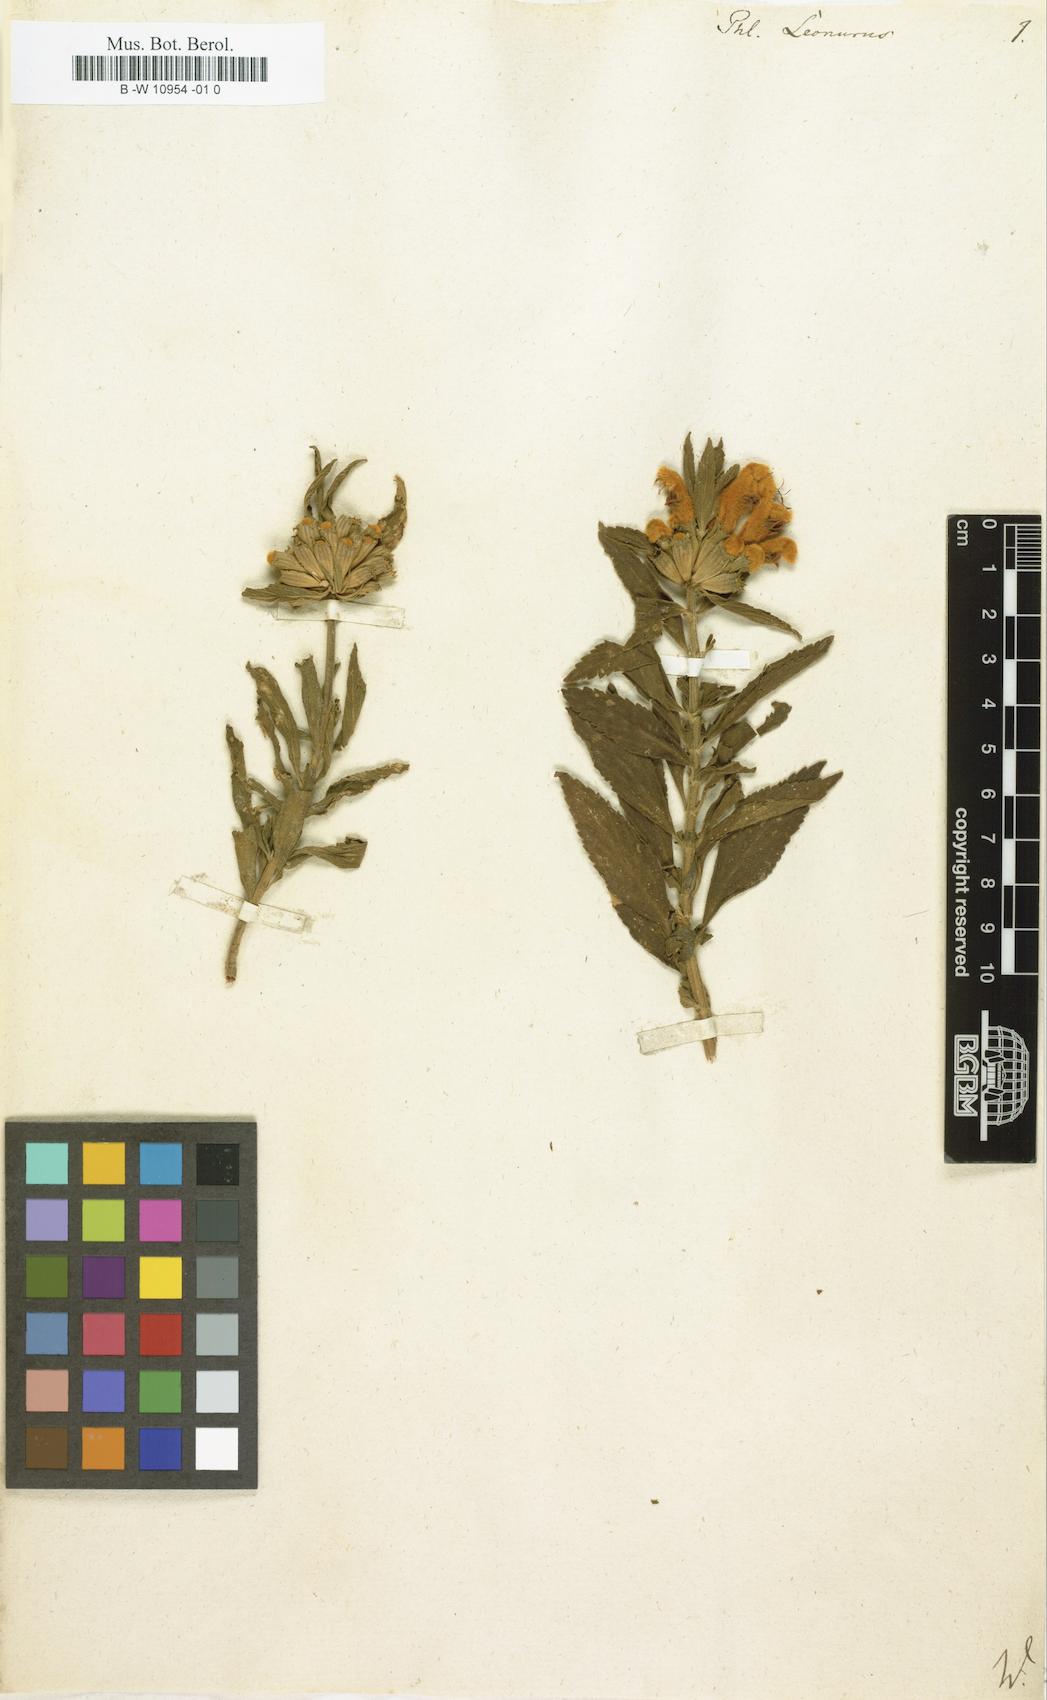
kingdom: Plantae
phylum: Tracheophyta
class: Magnoliopsida
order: Lamiales
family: Lamiaceae
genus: Leonotis
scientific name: Leonotis leonurus
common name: Lion's ear
